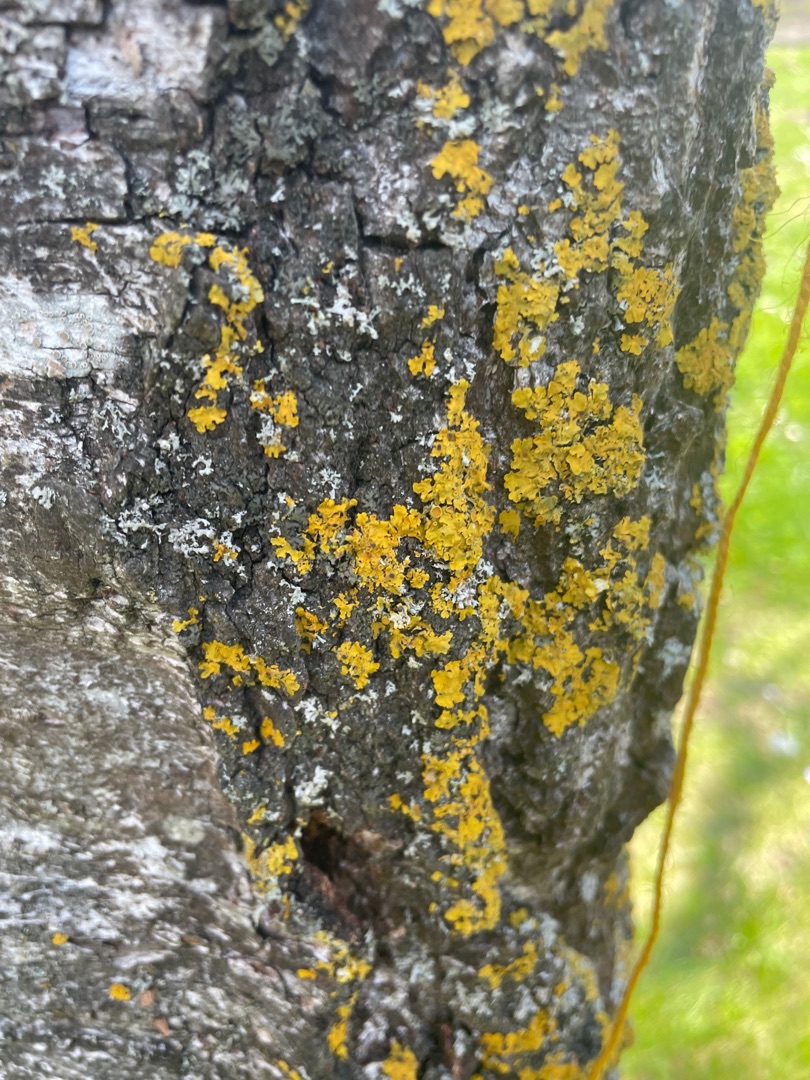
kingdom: Fungi
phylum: Ascomycota
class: Lecanoromycetes
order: Teloschistales
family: Teloschistaceae
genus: Xanthoria
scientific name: Xanthoria parietina
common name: Almindelig væggelav
